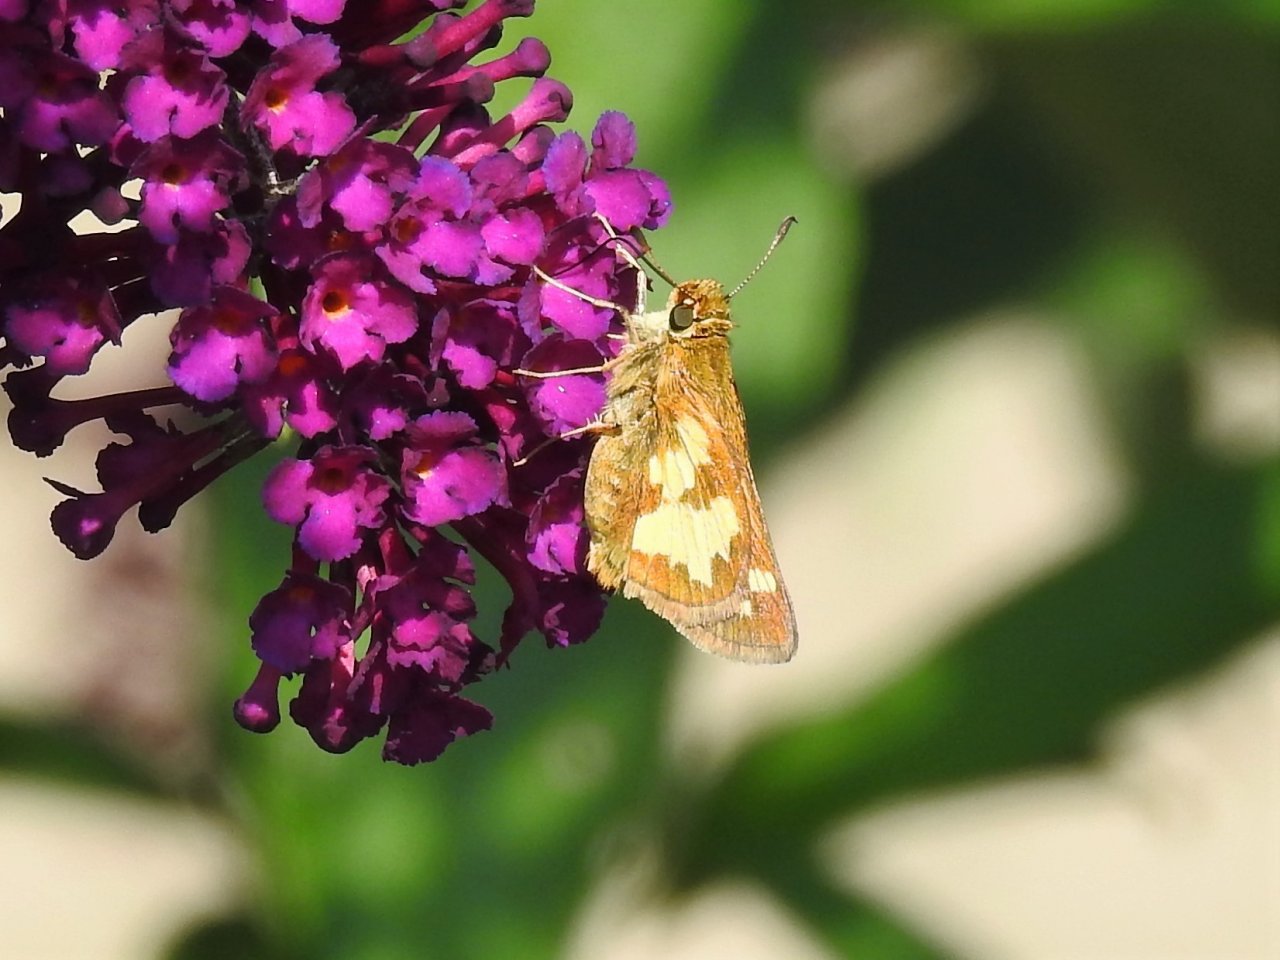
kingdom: Animalia
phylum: Arthropoda
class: Insecta
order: Lepidoptera
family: Hesperiidae
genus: Polites
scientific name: Polites coras
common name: Peck's Skipper
